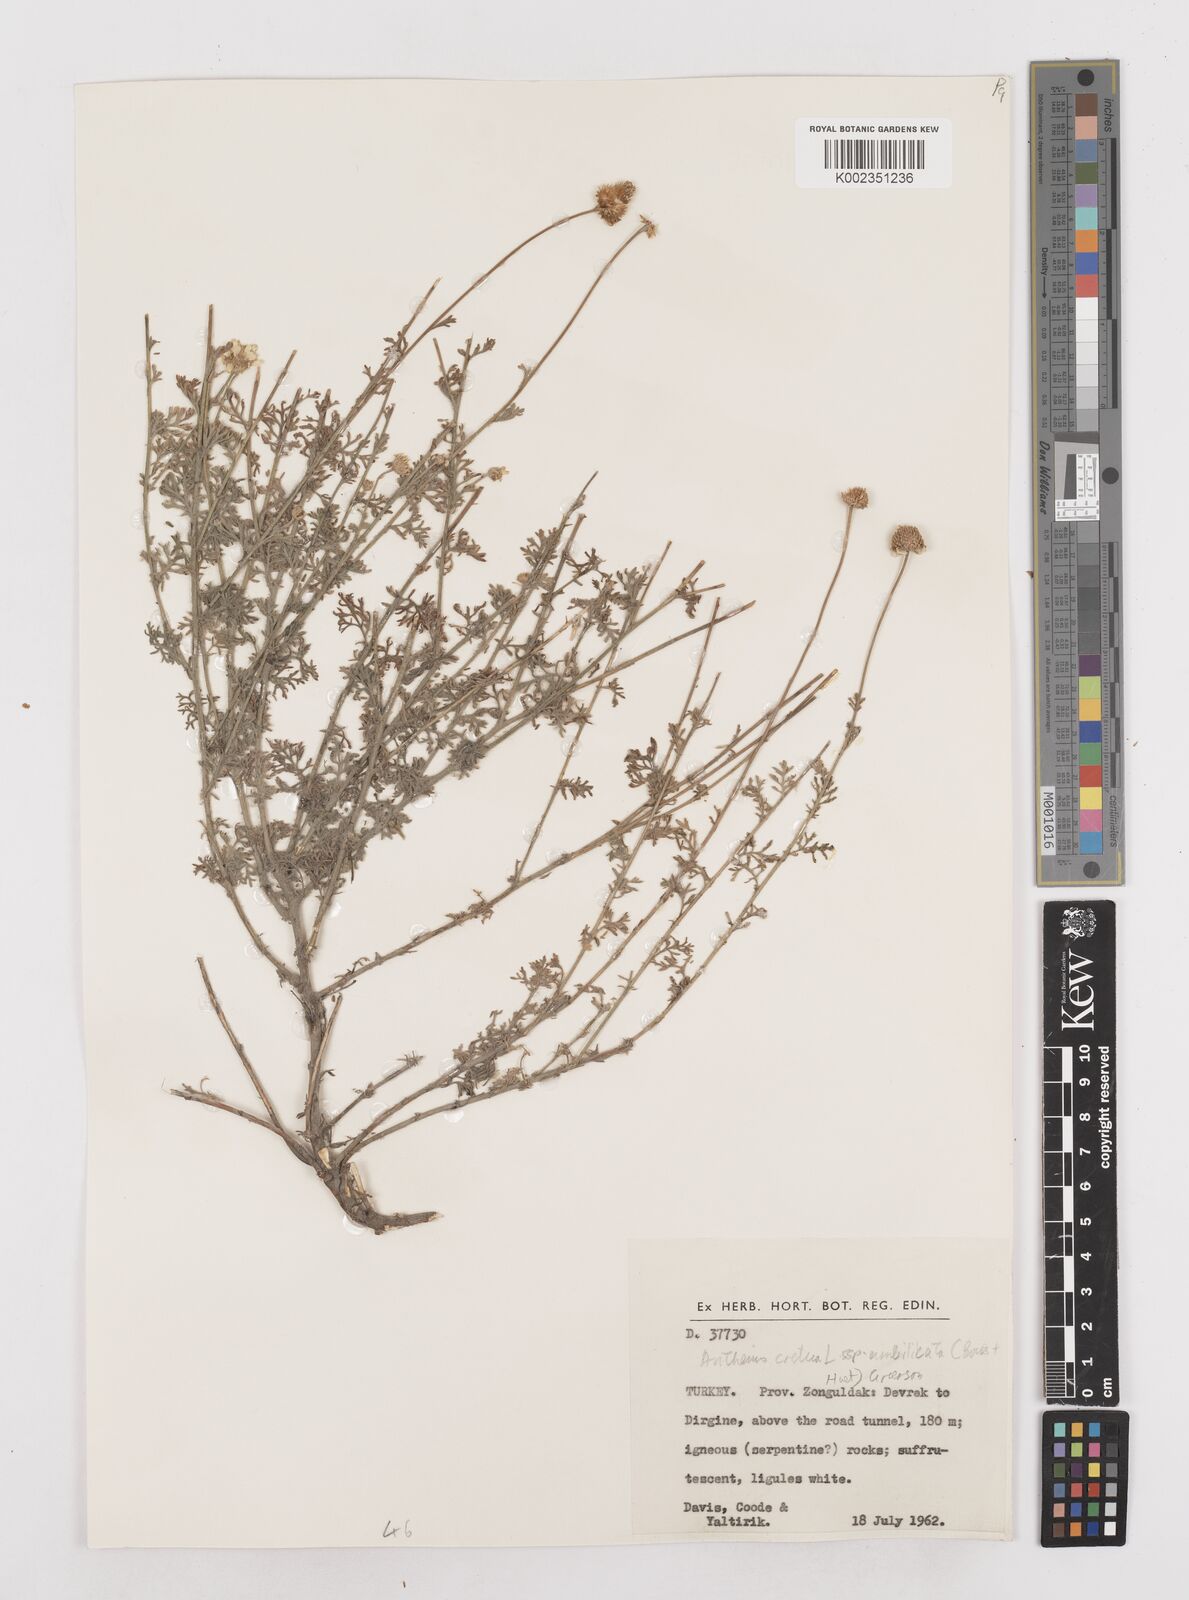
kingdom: Plantae
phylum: Tracheophyta
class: Magnoliopsida
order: Asterales
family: Asteraceae
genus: Anthemis
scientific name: Anthemis cretica
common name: Mountain dog-daisy
